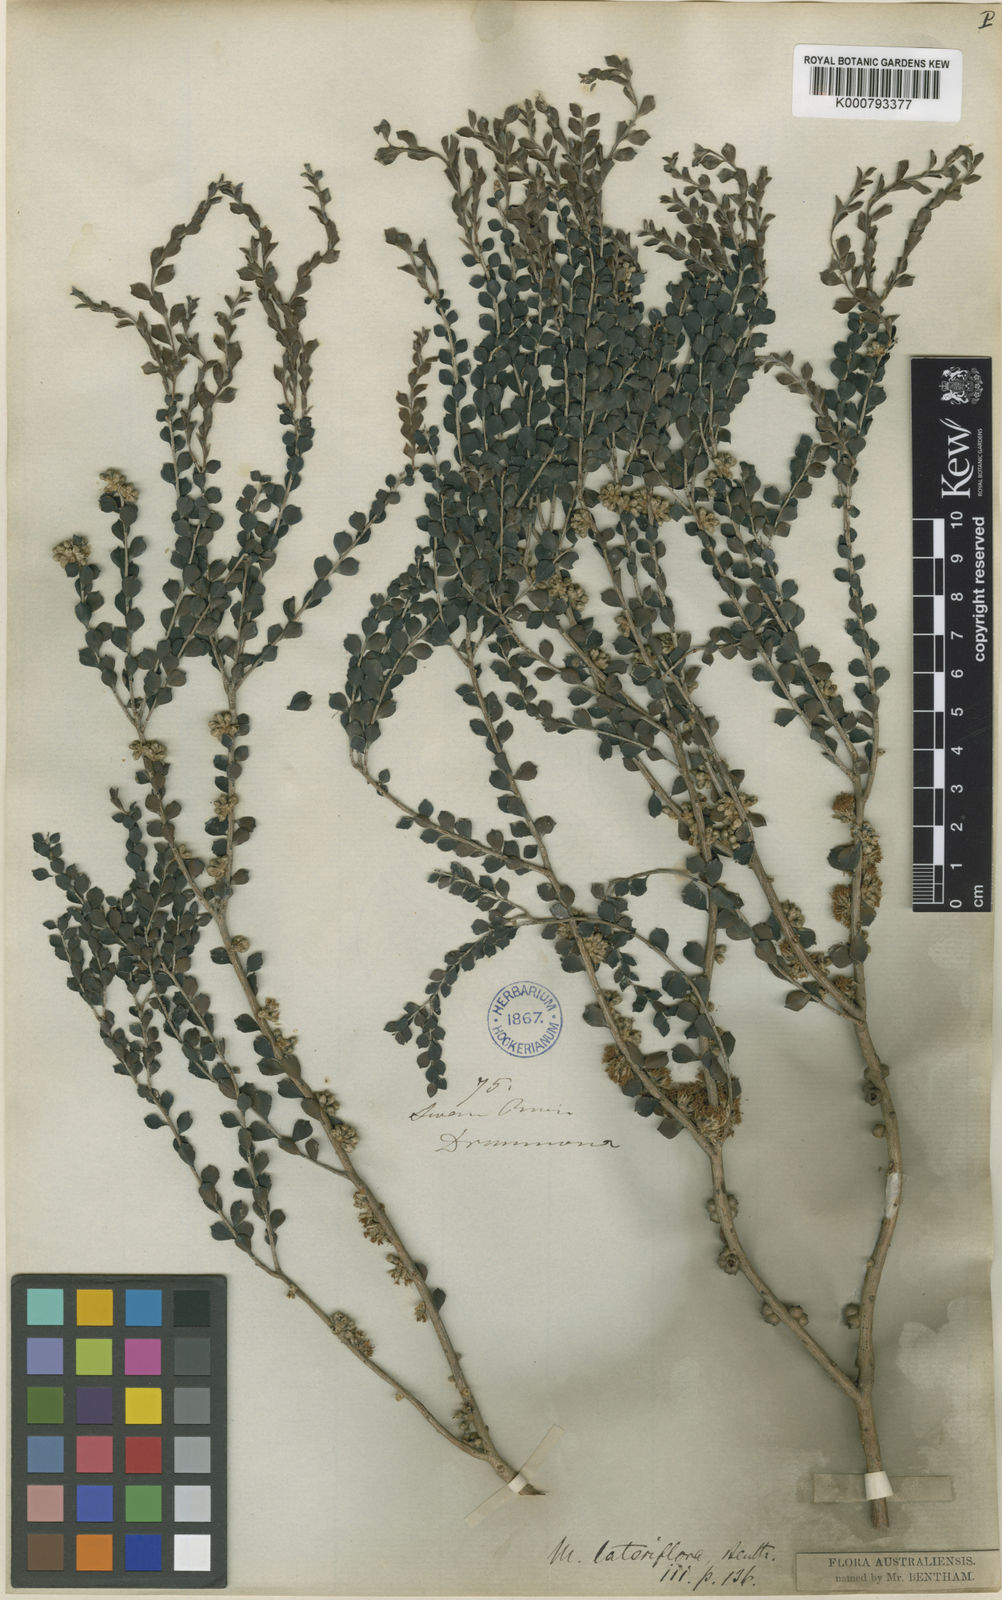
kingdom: Plantae
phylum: Tracheophyta
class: Magnoliopsida
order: Myrtales
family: Myrtaceae
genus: Melaleuca
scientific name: Melaleuca lateriflora
